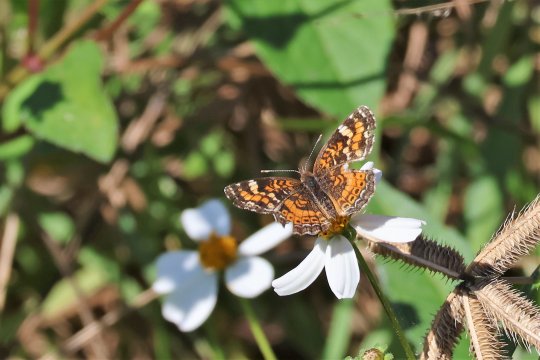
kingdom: Animalia
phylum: Arthropoda
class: Insecta
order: Lepidoptera
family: Nymphalidae
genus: Phyciodes
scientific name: Phyciodes phaon
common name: Phaon Crescent
